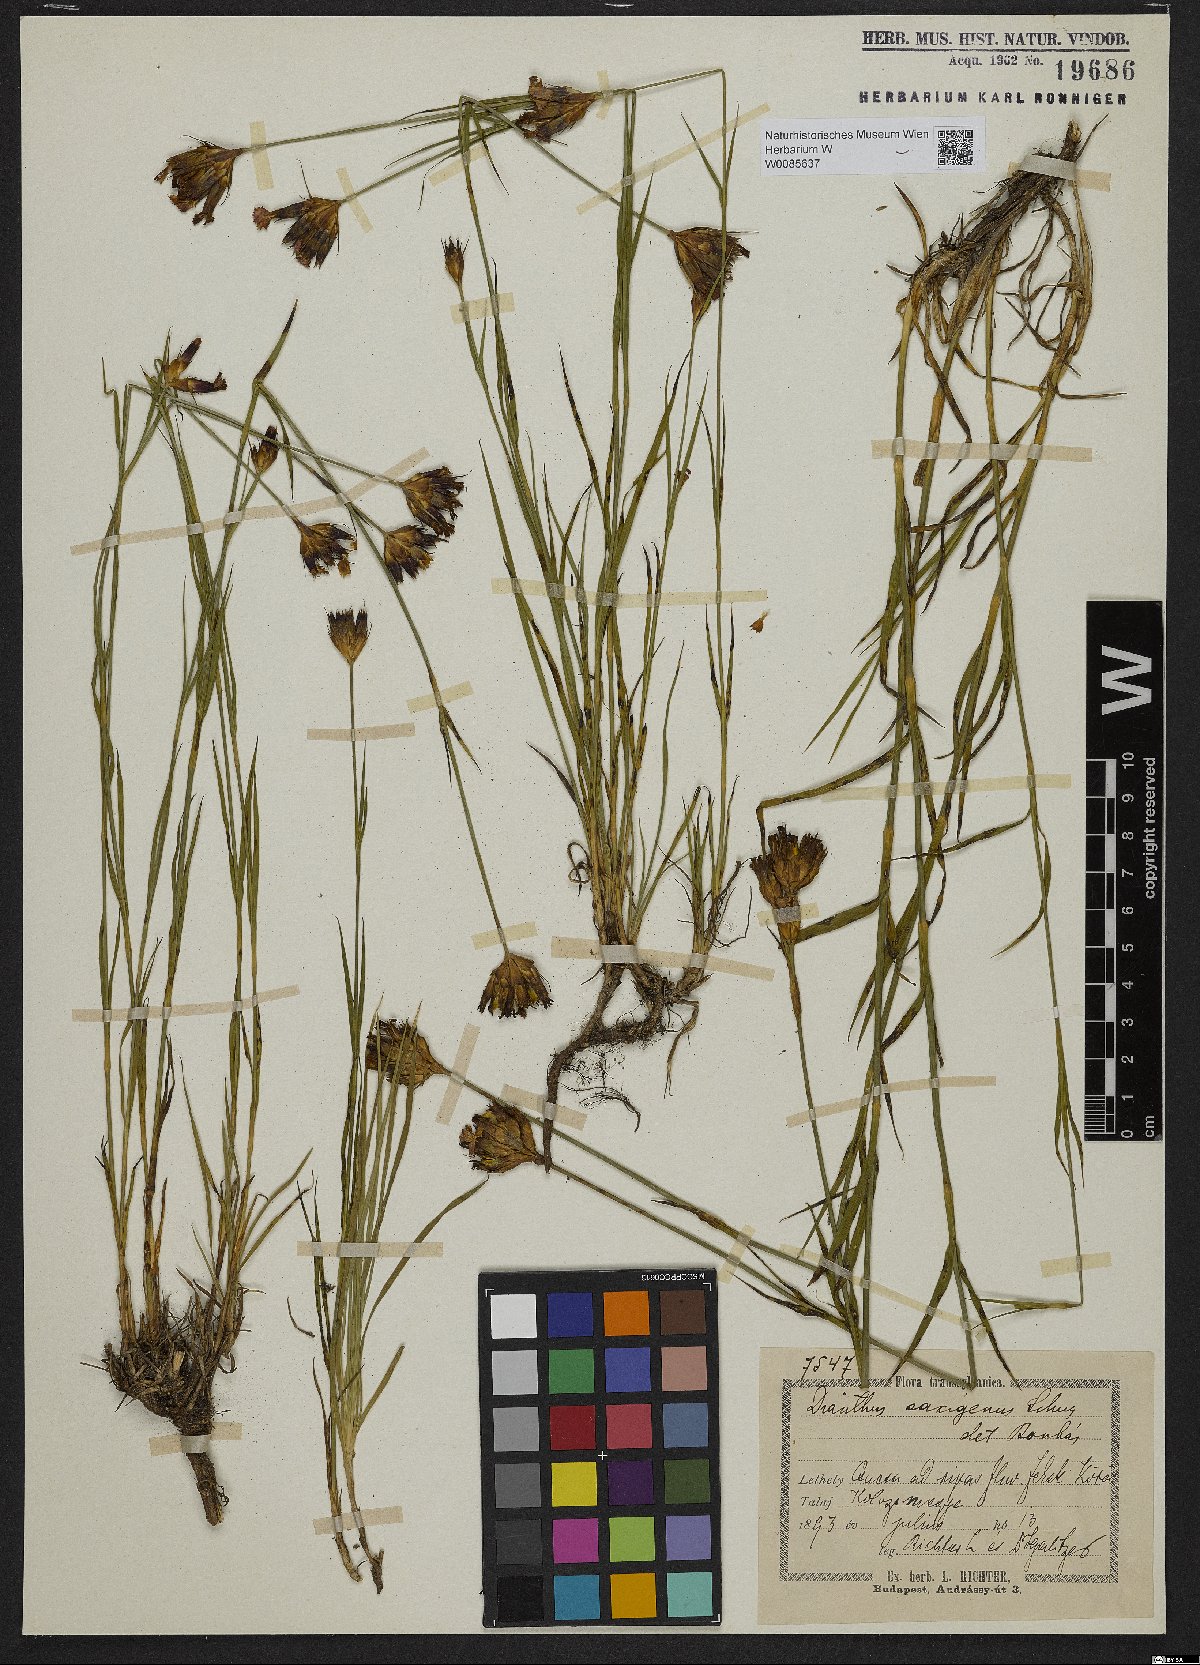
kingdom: Plantae
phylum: Tracheophyta
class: Magnoliopsida
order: Caryophyllales
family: Caryophyllaceae
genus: Dianthus
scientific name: Dianthus
